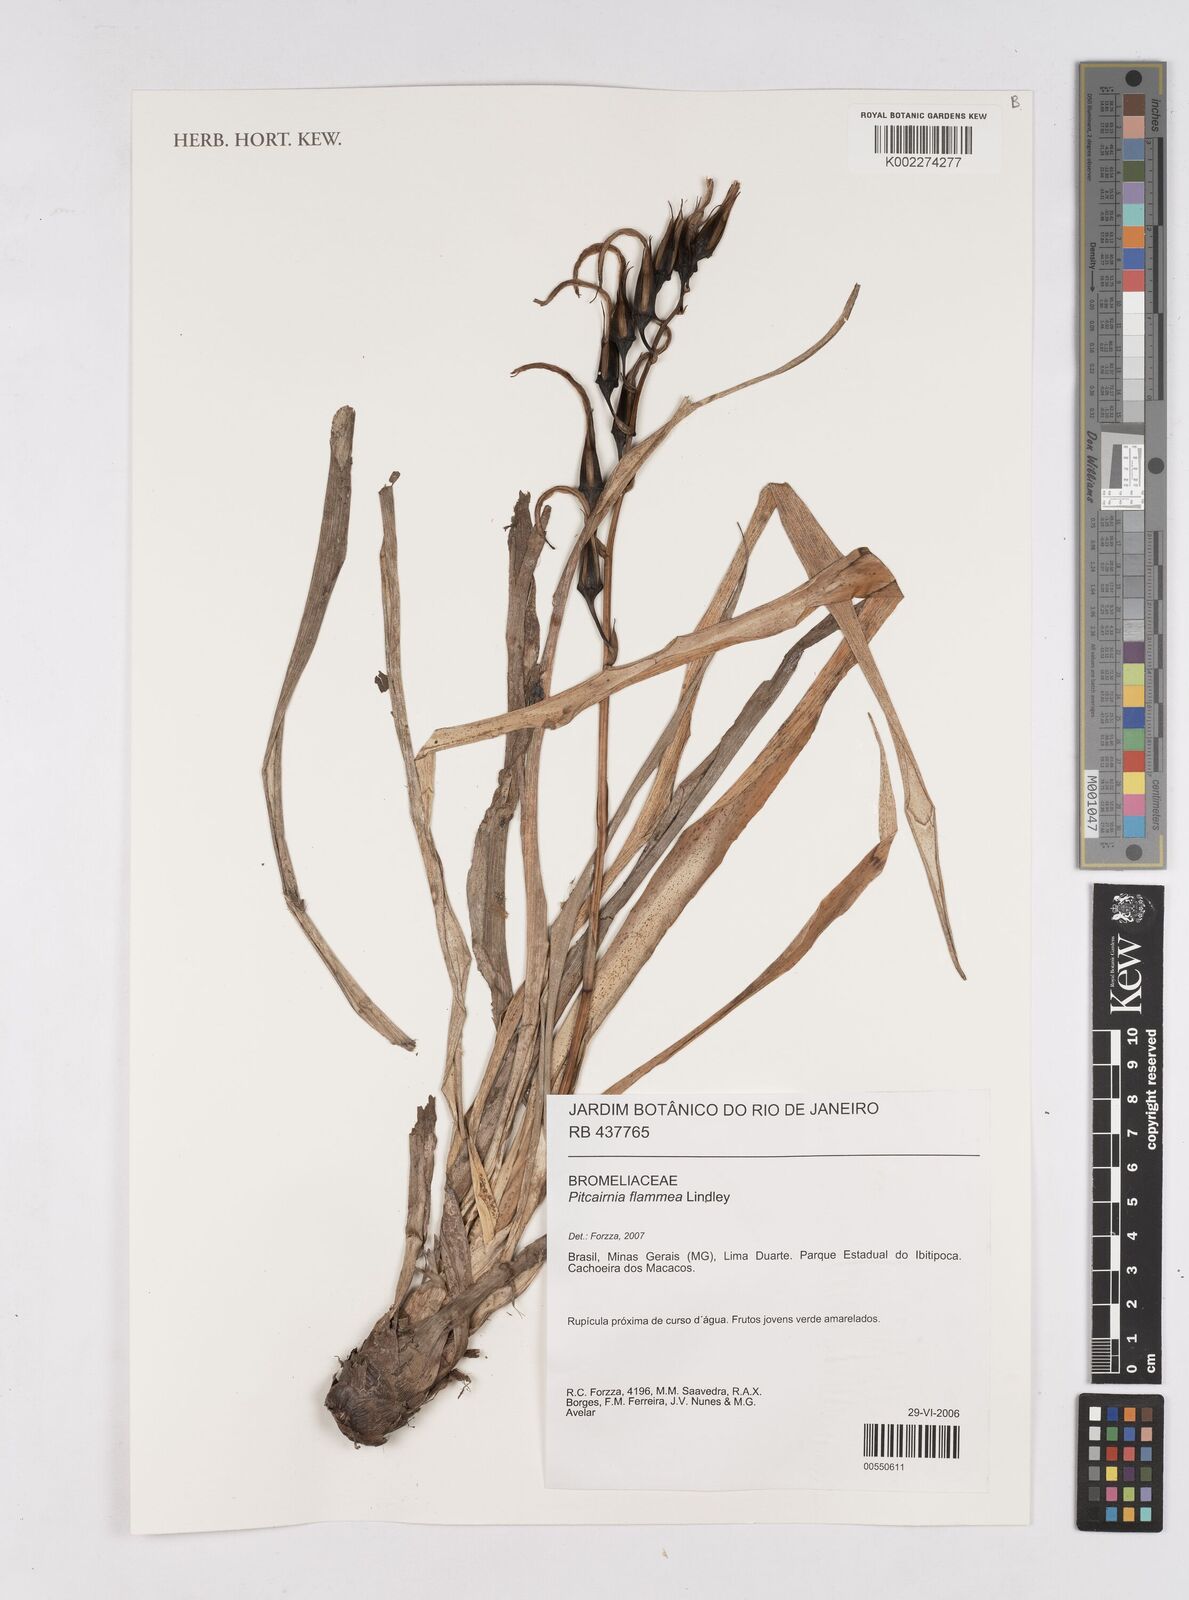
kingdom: Plantae
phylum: Tracheophyta
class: Liliopsida
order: Poales
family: Bromeliaceae
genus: Pitcairnia
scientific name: Pitcairnia flammea
